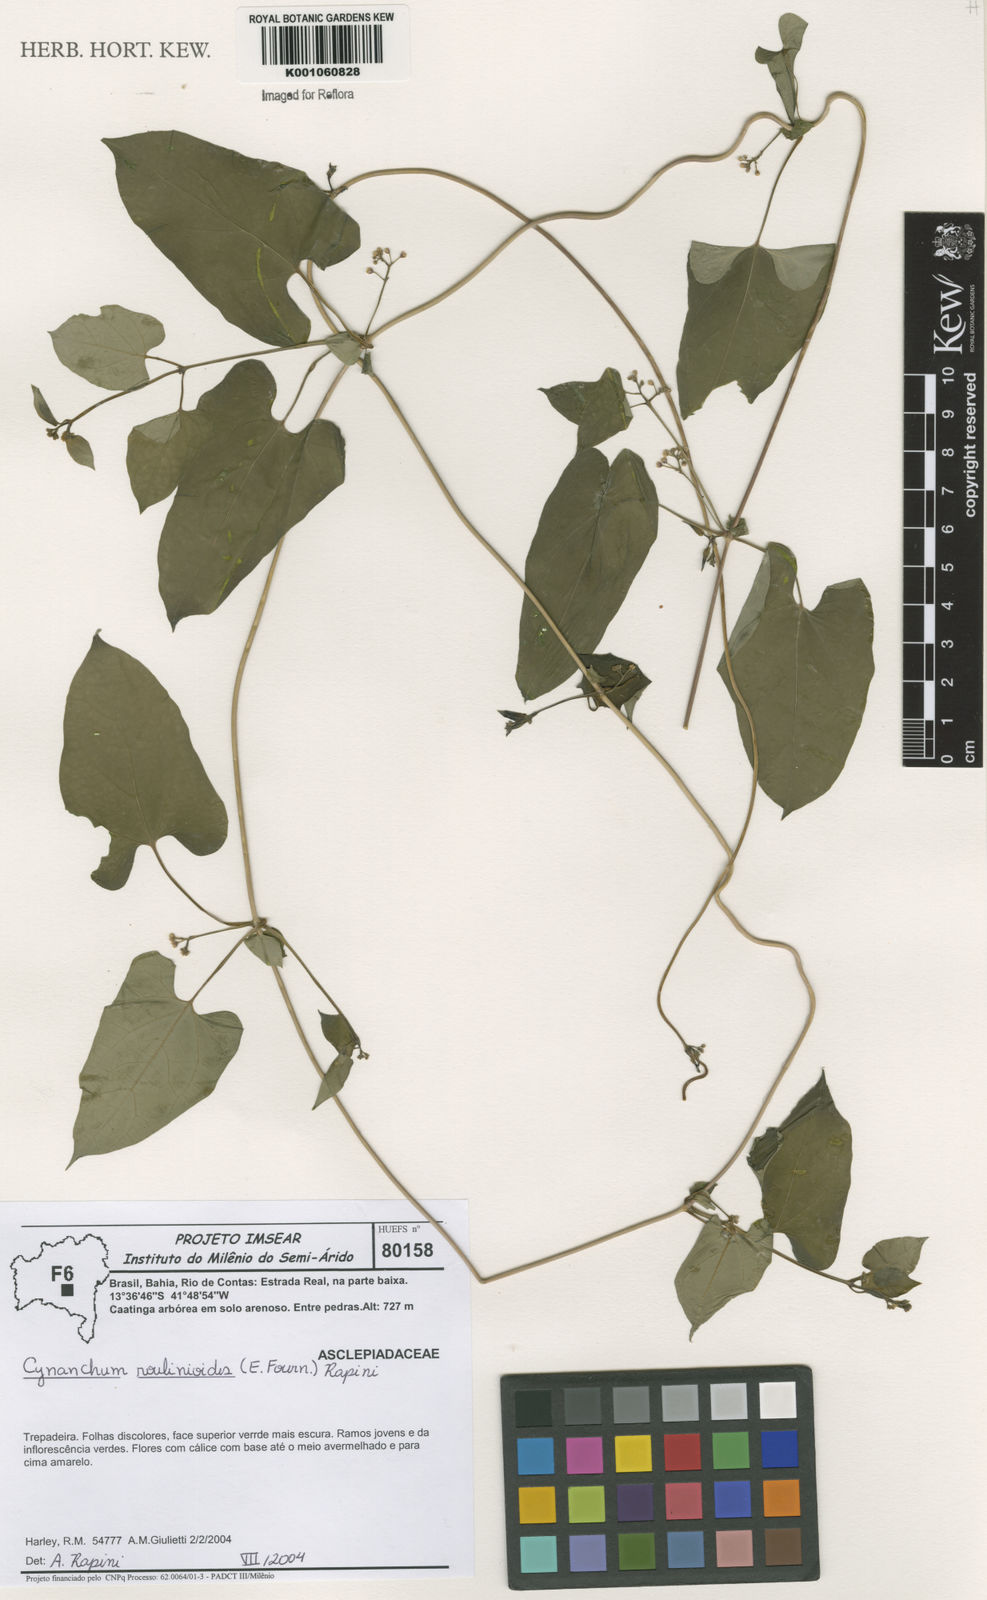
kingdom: Plantae
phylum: Tracheophyta
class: Magnoliopsida
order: Gentianales
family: Apocynaceae
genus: Cynanchum
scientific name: Cynanchum roulinioides
